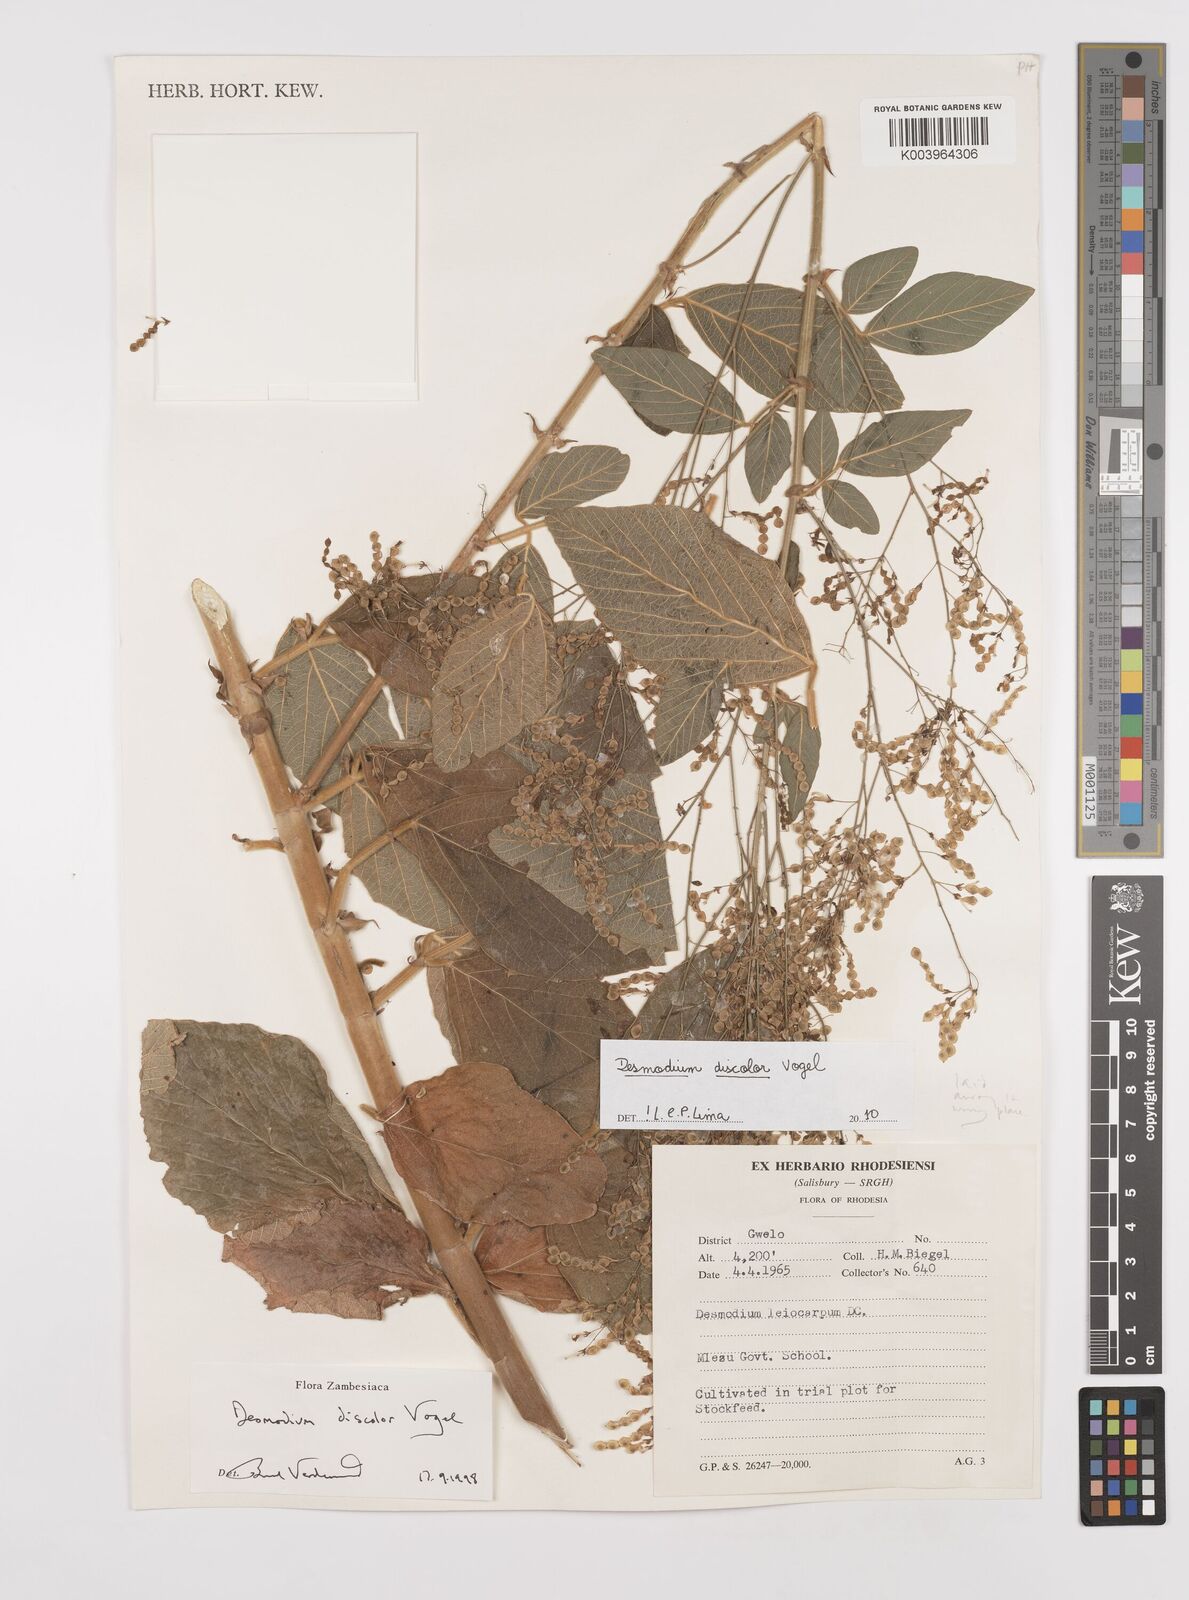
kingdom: Plantae
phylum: Tracheophyta
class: Magnoliopsida
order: Fabales
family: Fabaceae
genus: Desmodium
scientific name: Desmodium subsecundum
